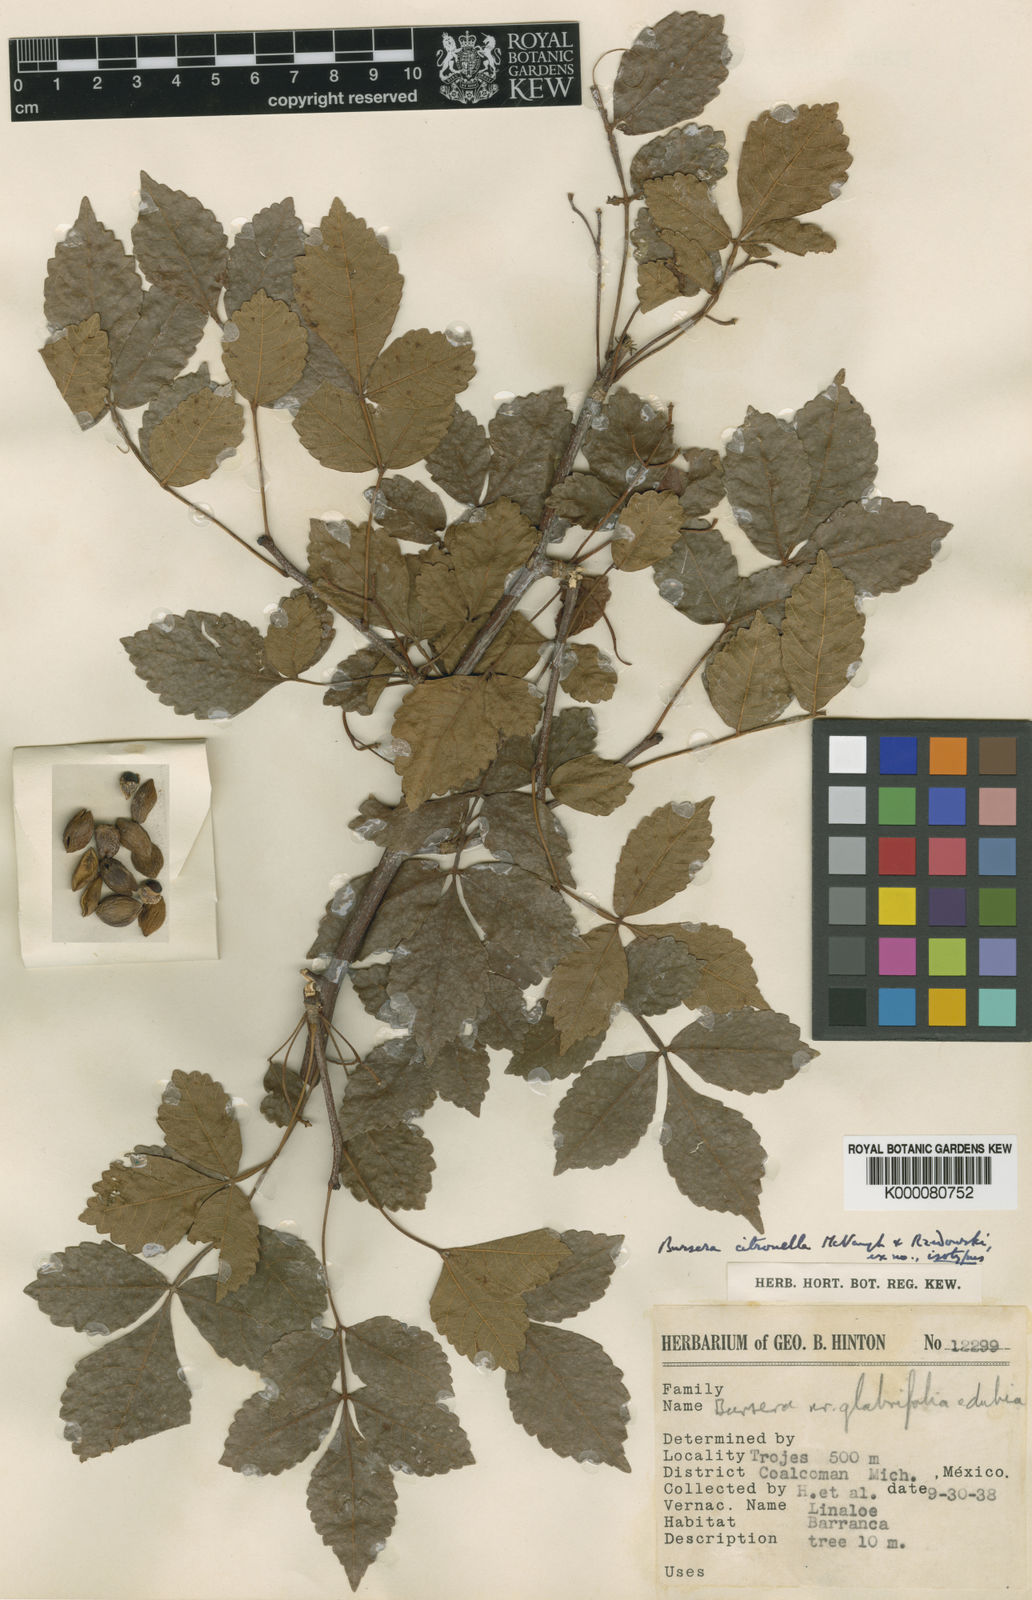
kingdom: Plantae
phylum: Tracheophyta
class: Magnoliopsida
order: Sapindales
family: Burseraceae
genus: Bursera
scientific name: Bursera citronella
